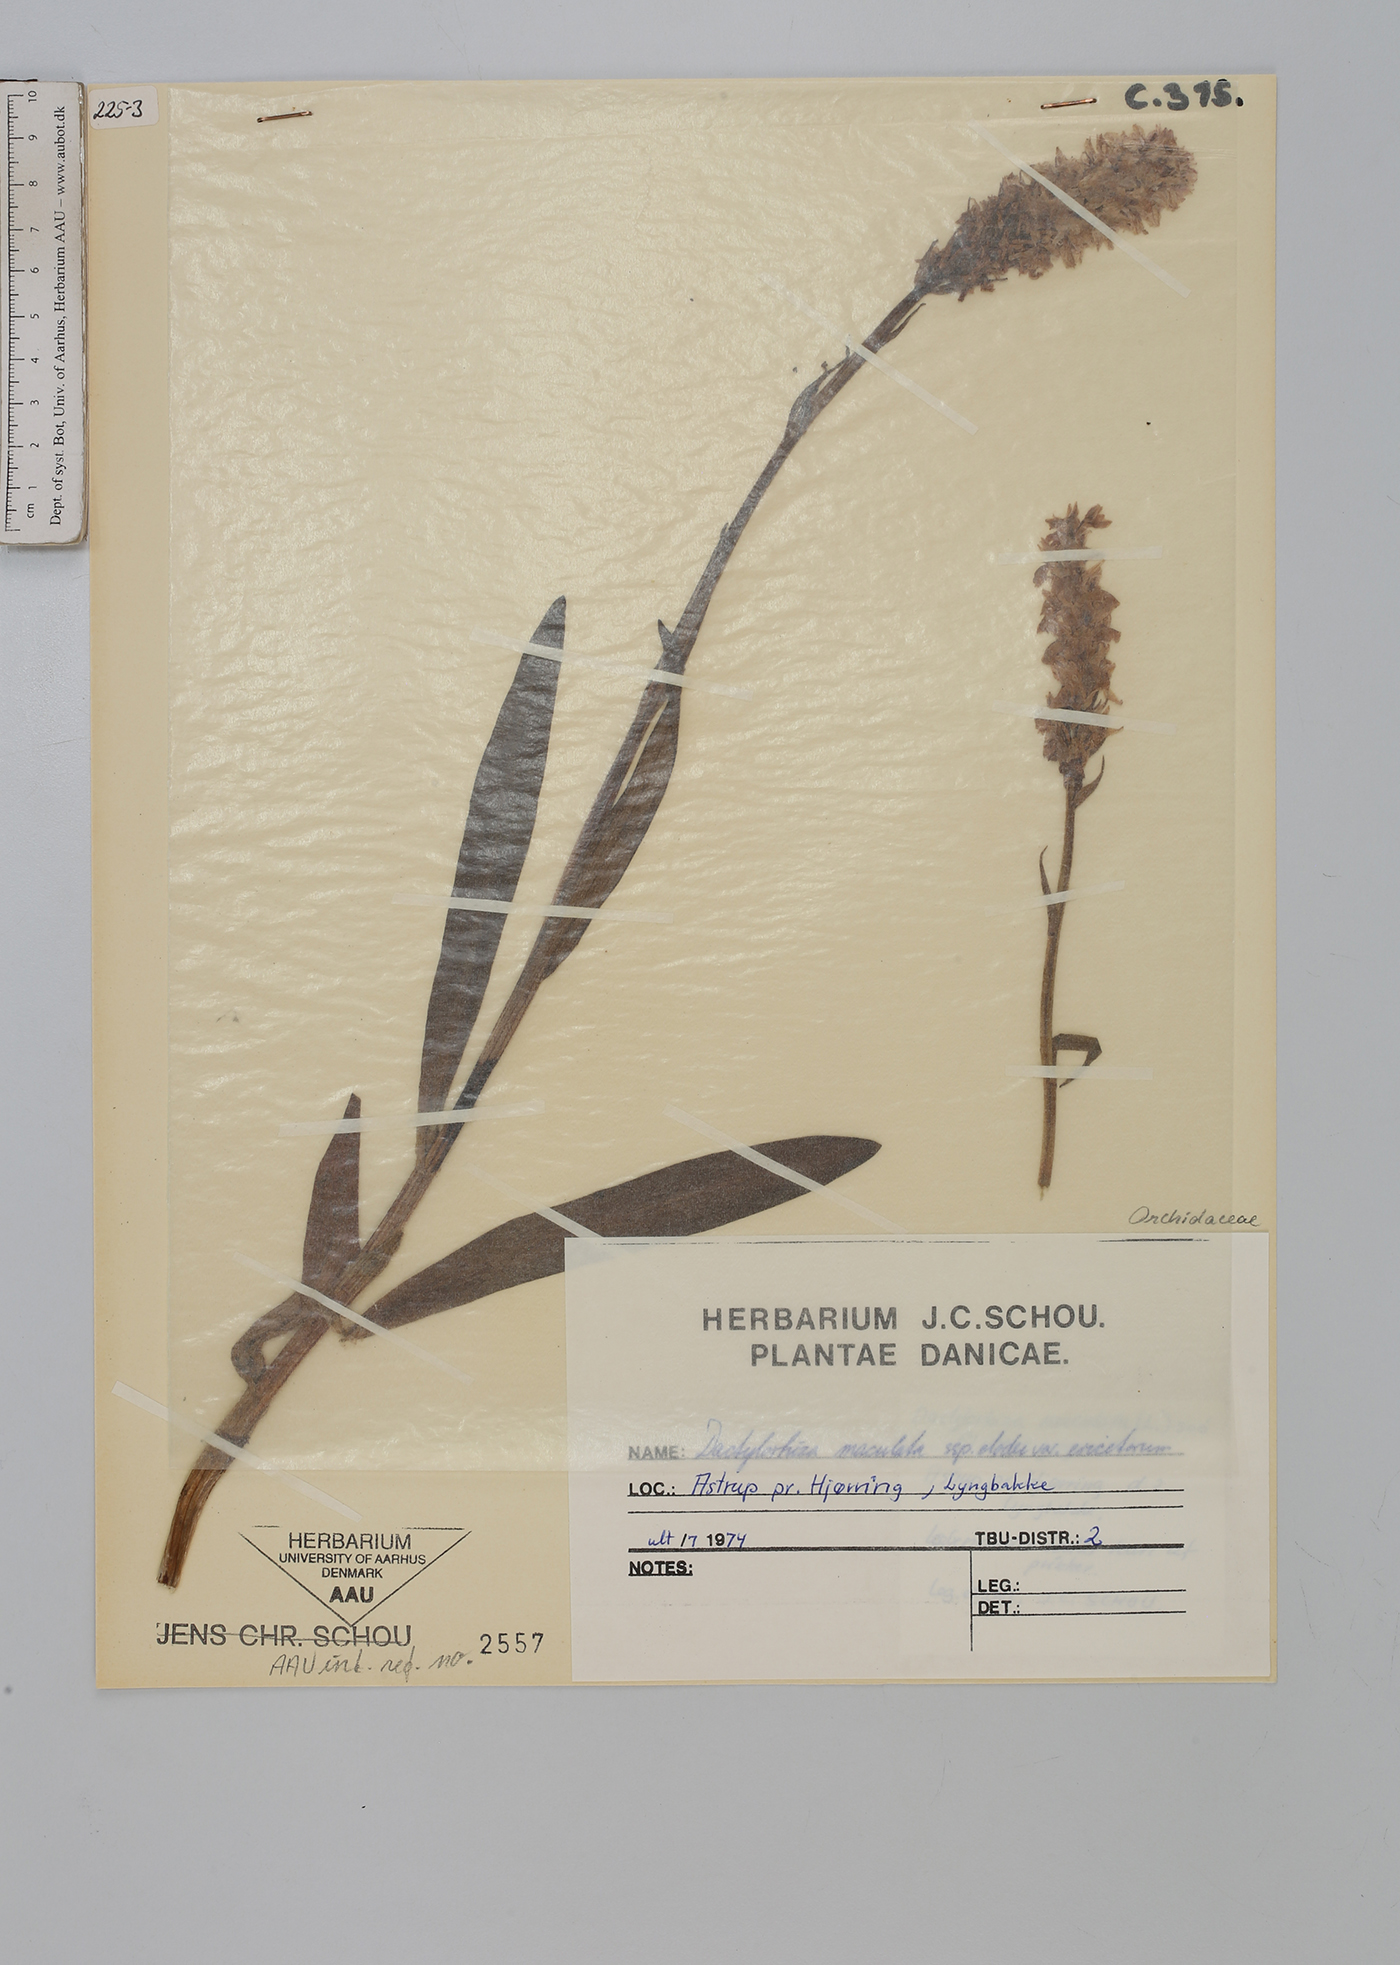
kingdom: Plantae
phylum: Tracheophyta
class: Liliopsida
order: Asparagales
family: Orchidaceae
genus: Dactylorhiza
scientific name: Dactylorhiza maculata
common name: Heath spotted-orchid
